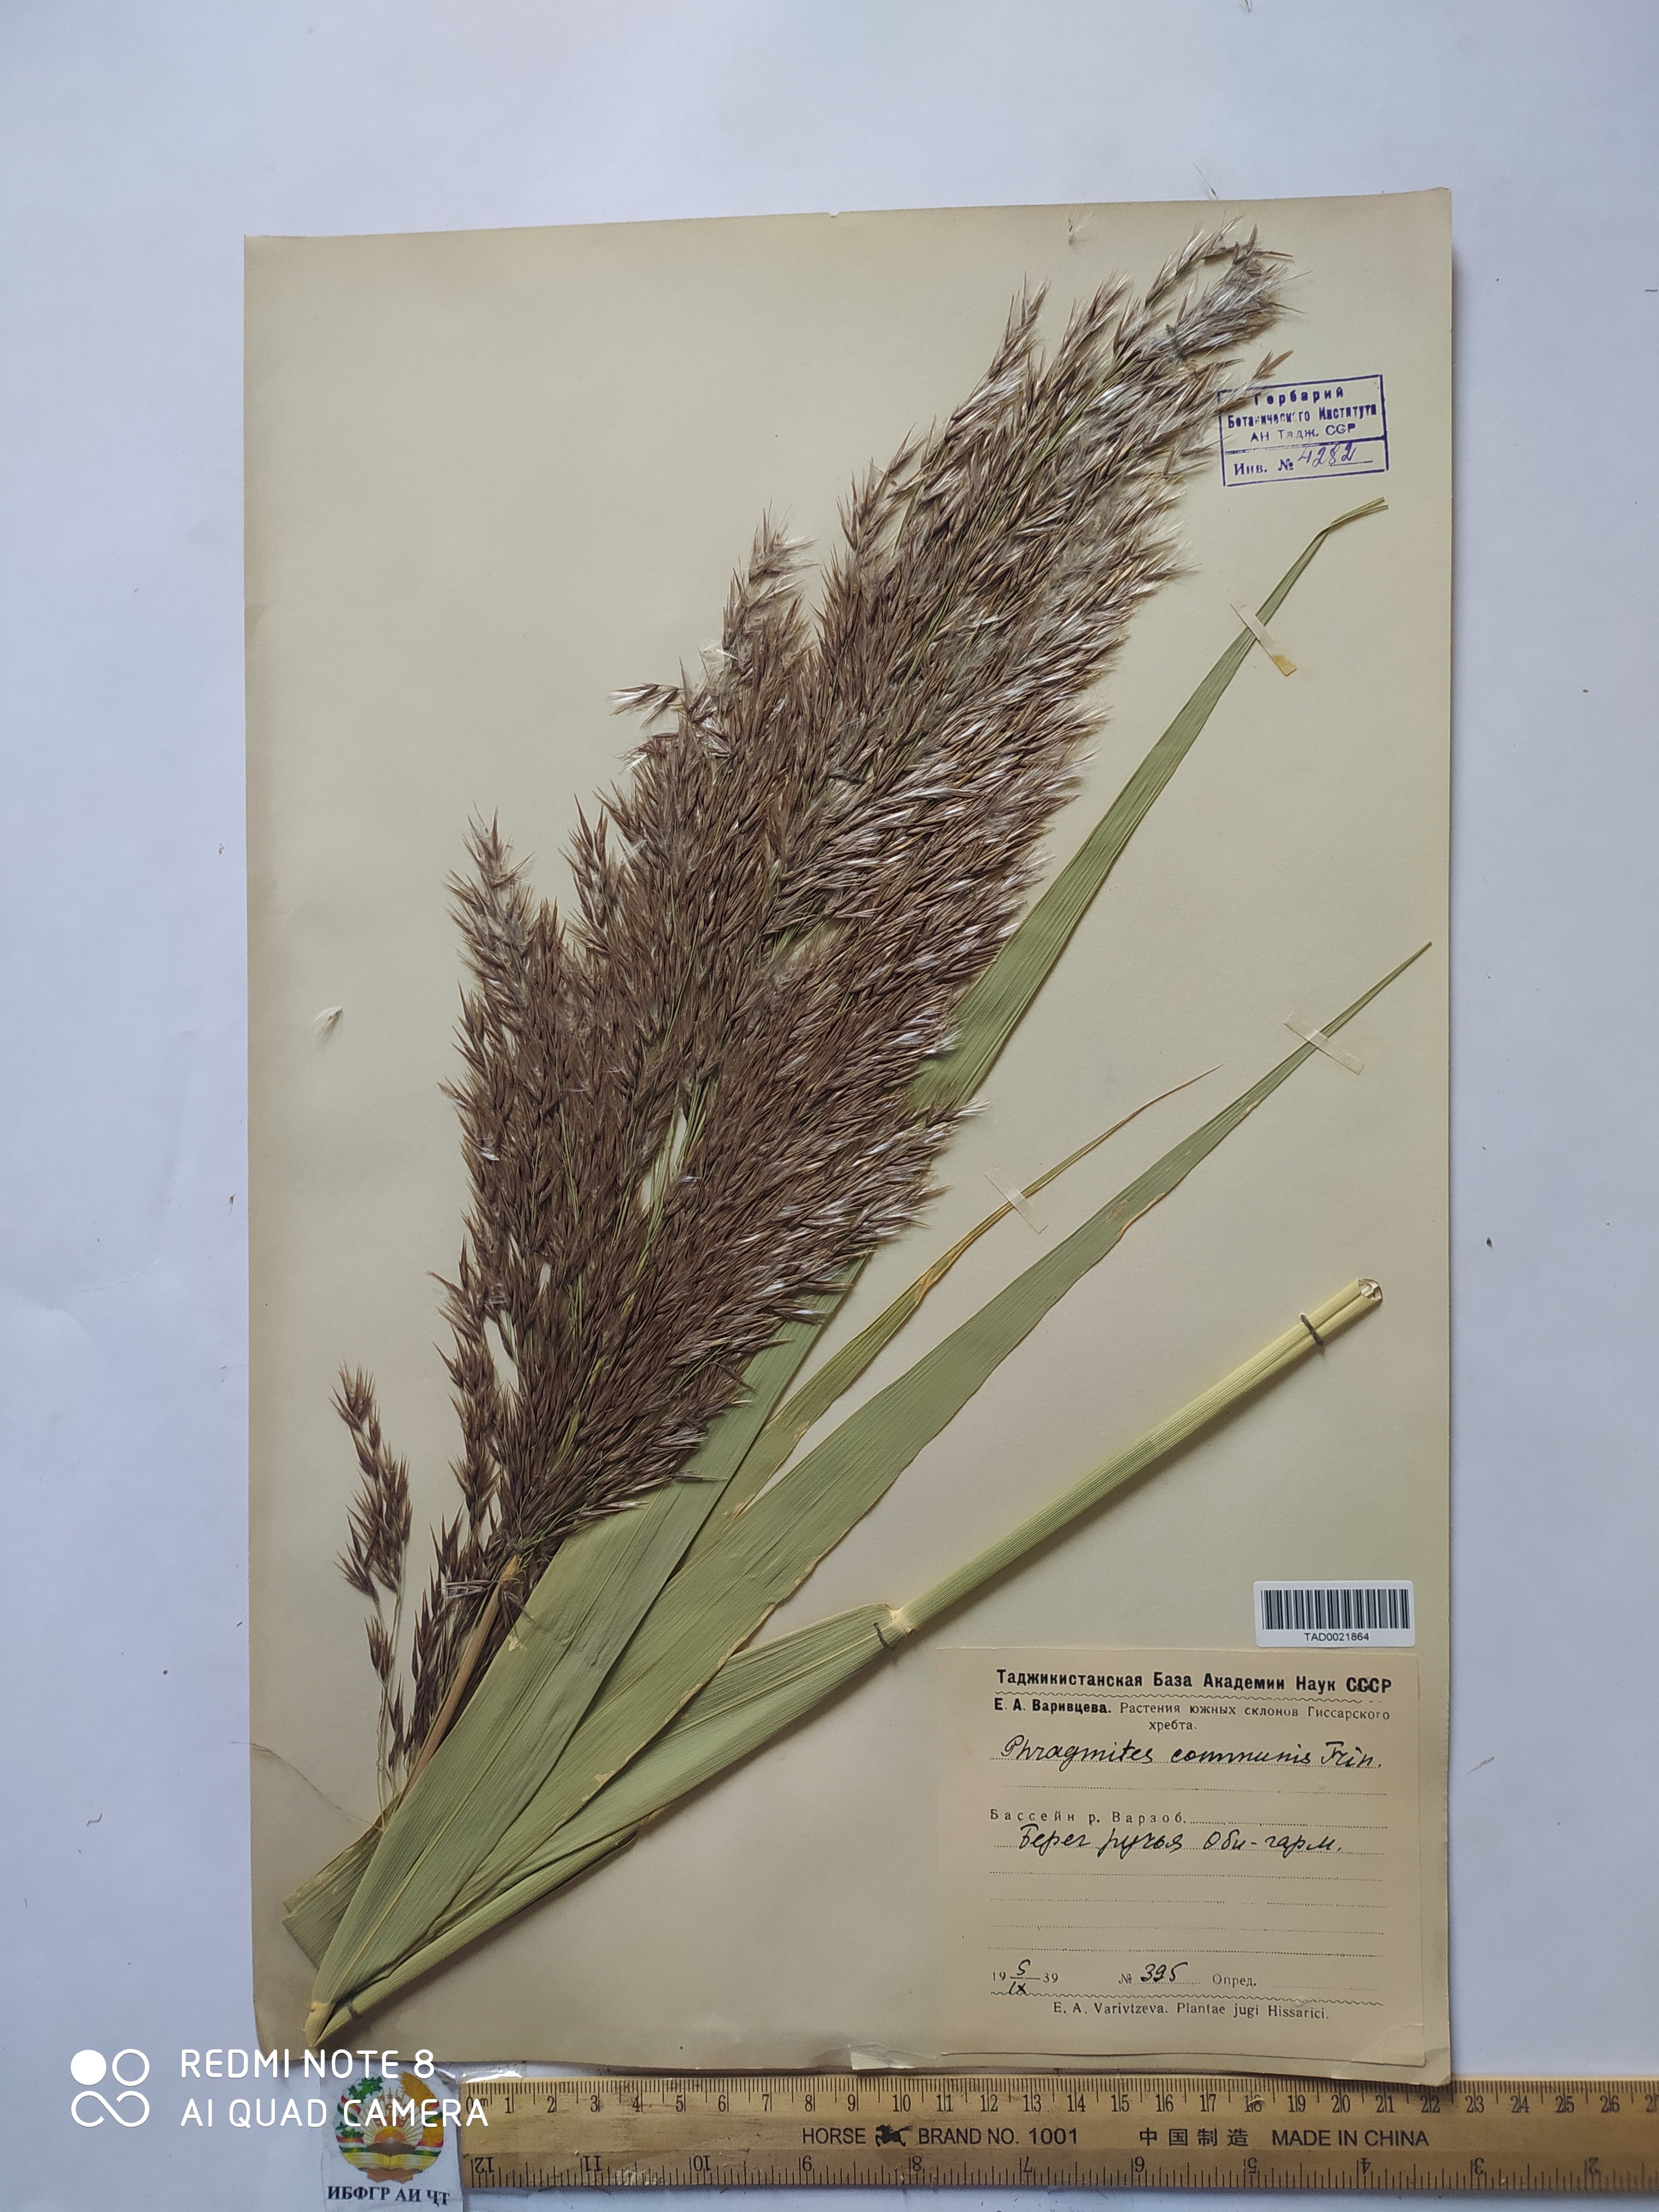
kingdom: Plantae
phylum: Tracheophyta
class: Liliopsida
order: Poales
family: Poaceae
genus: Phragmites
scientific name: Phragmites australis
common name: Common reed
